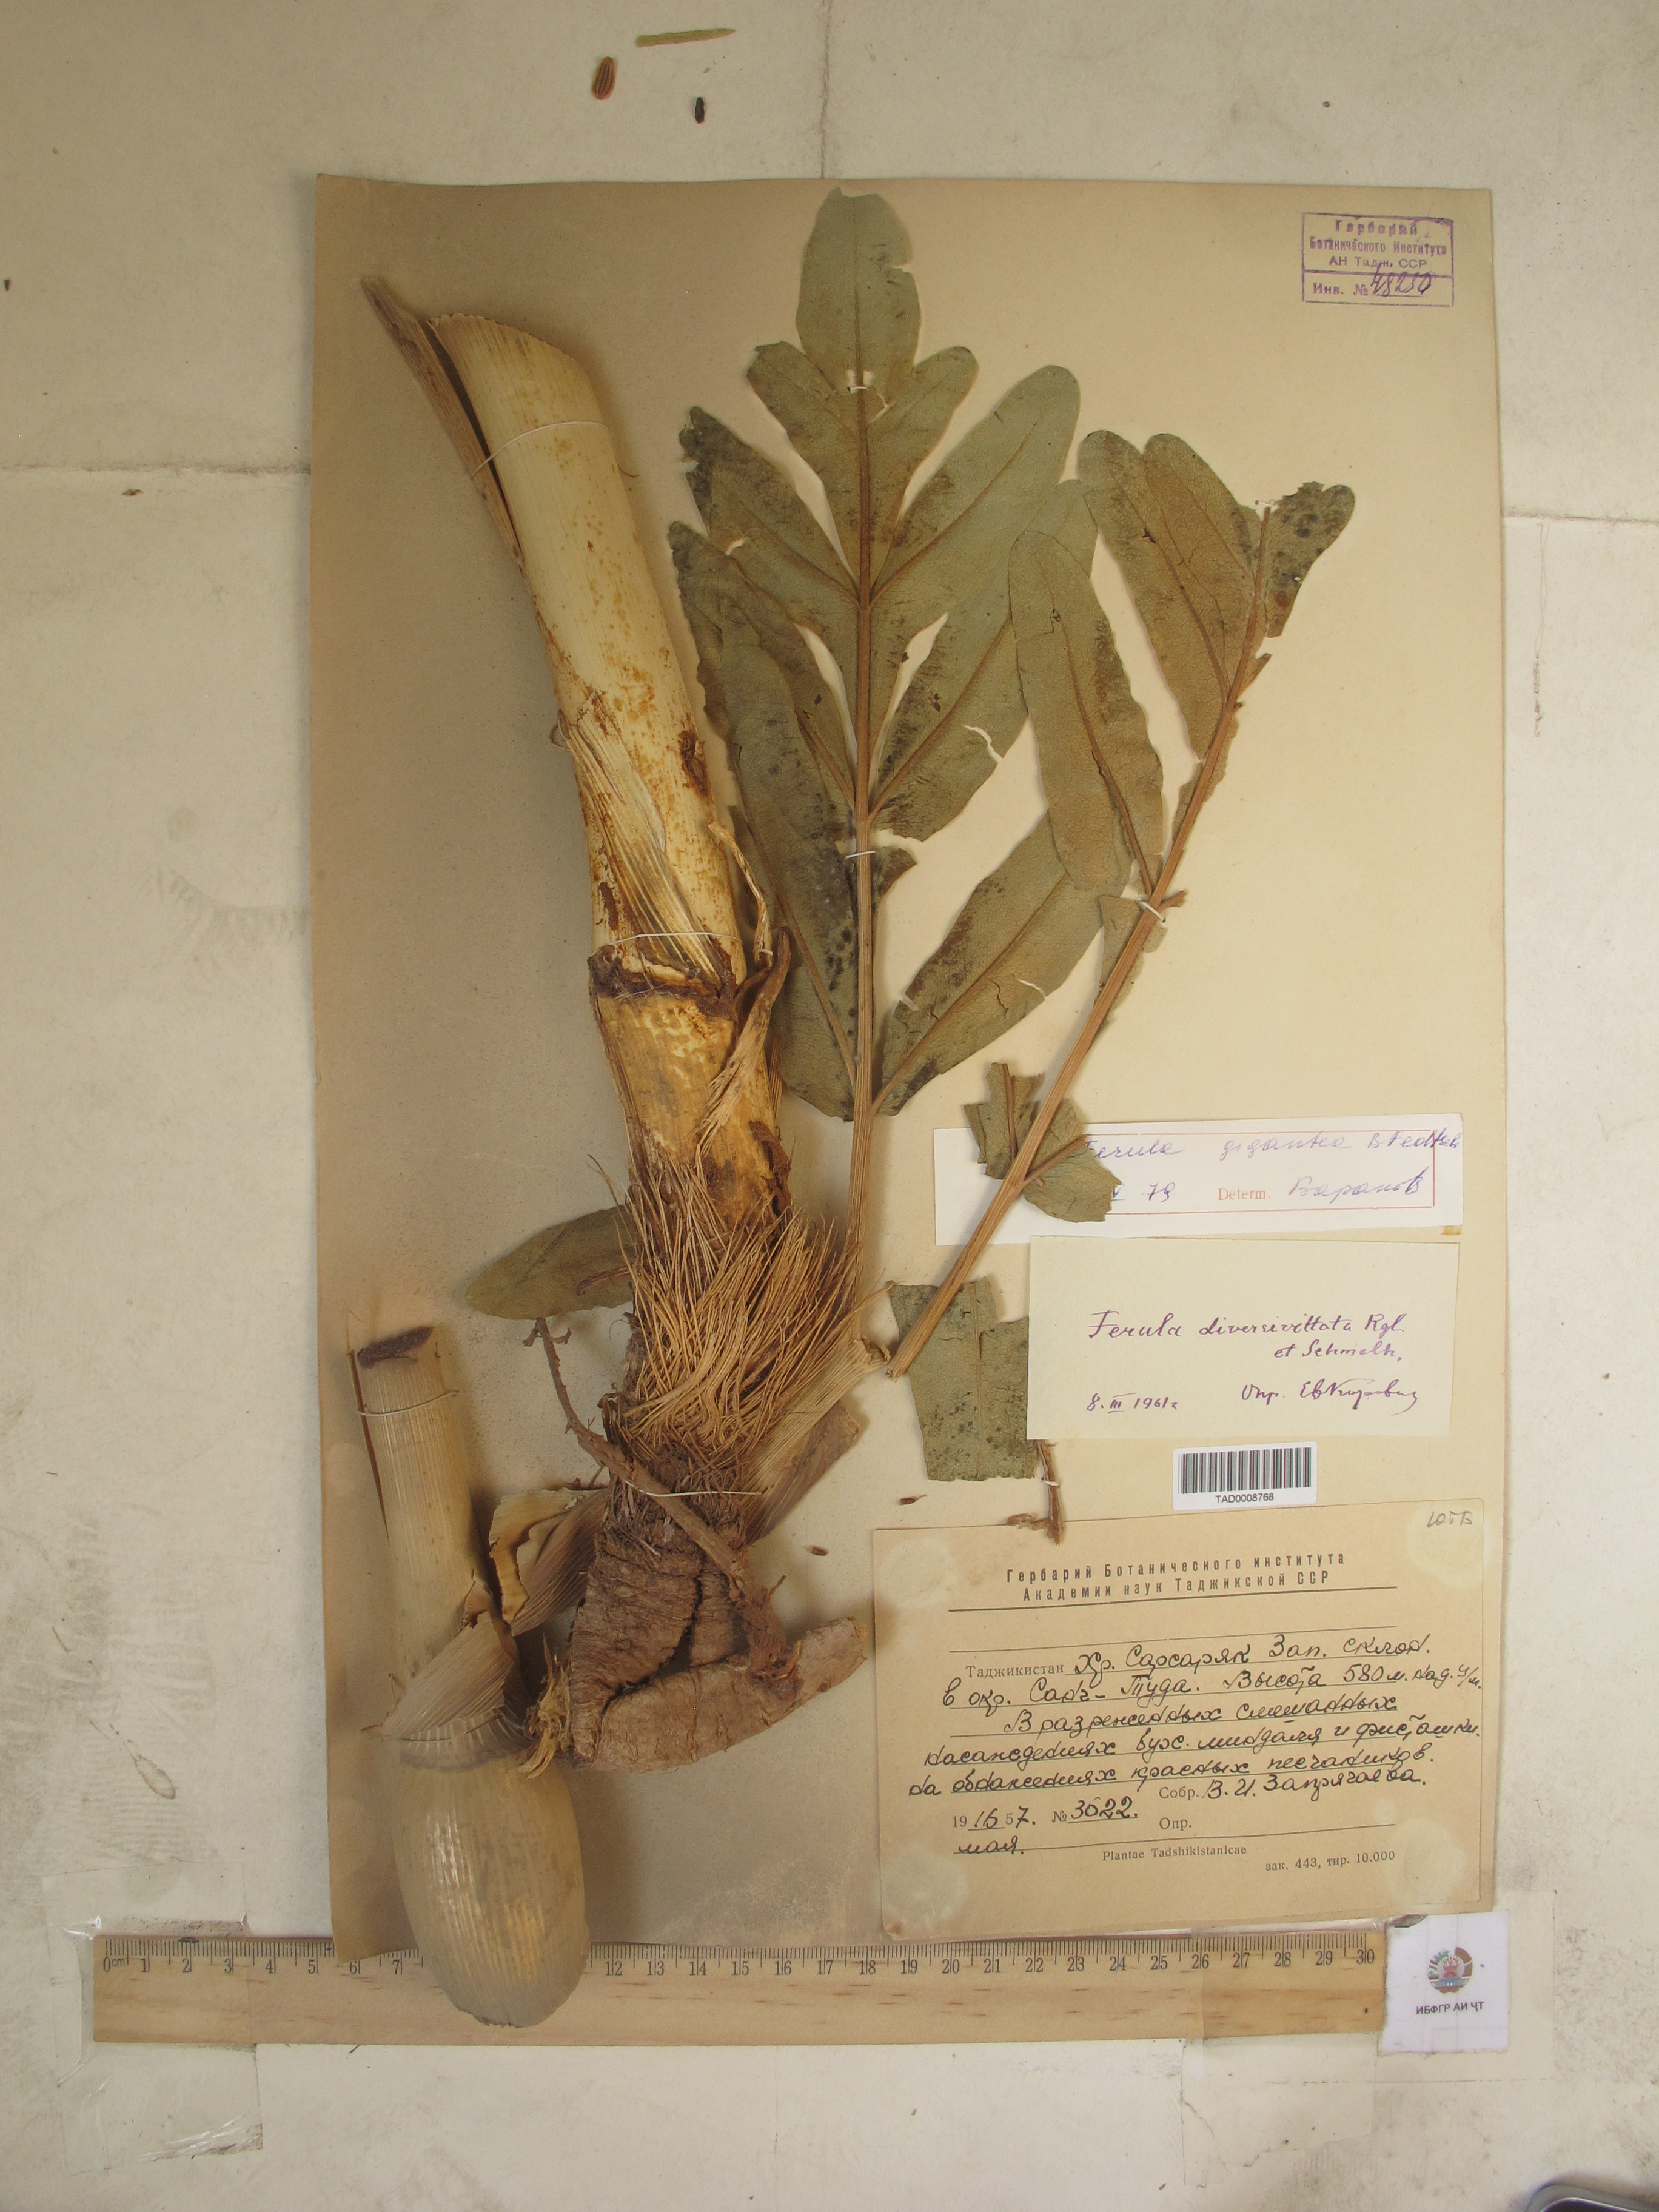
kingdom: Plantae
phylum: Tracheophyta
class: Magnoliopsida
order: Apiales
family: Apiaceae
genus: Ferula
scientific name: Ferula gigantea
